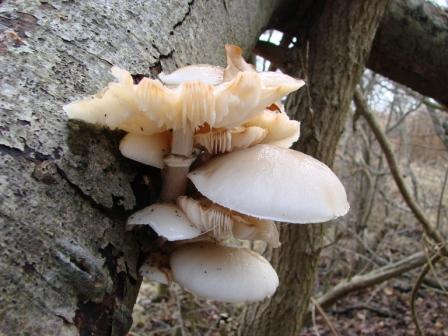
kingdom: Fungi
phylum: Basidiomycota
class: Agaricomycetes
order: Agaricales
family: Physalacriaceae
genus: Mucidula
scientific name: Mucidula mucida
